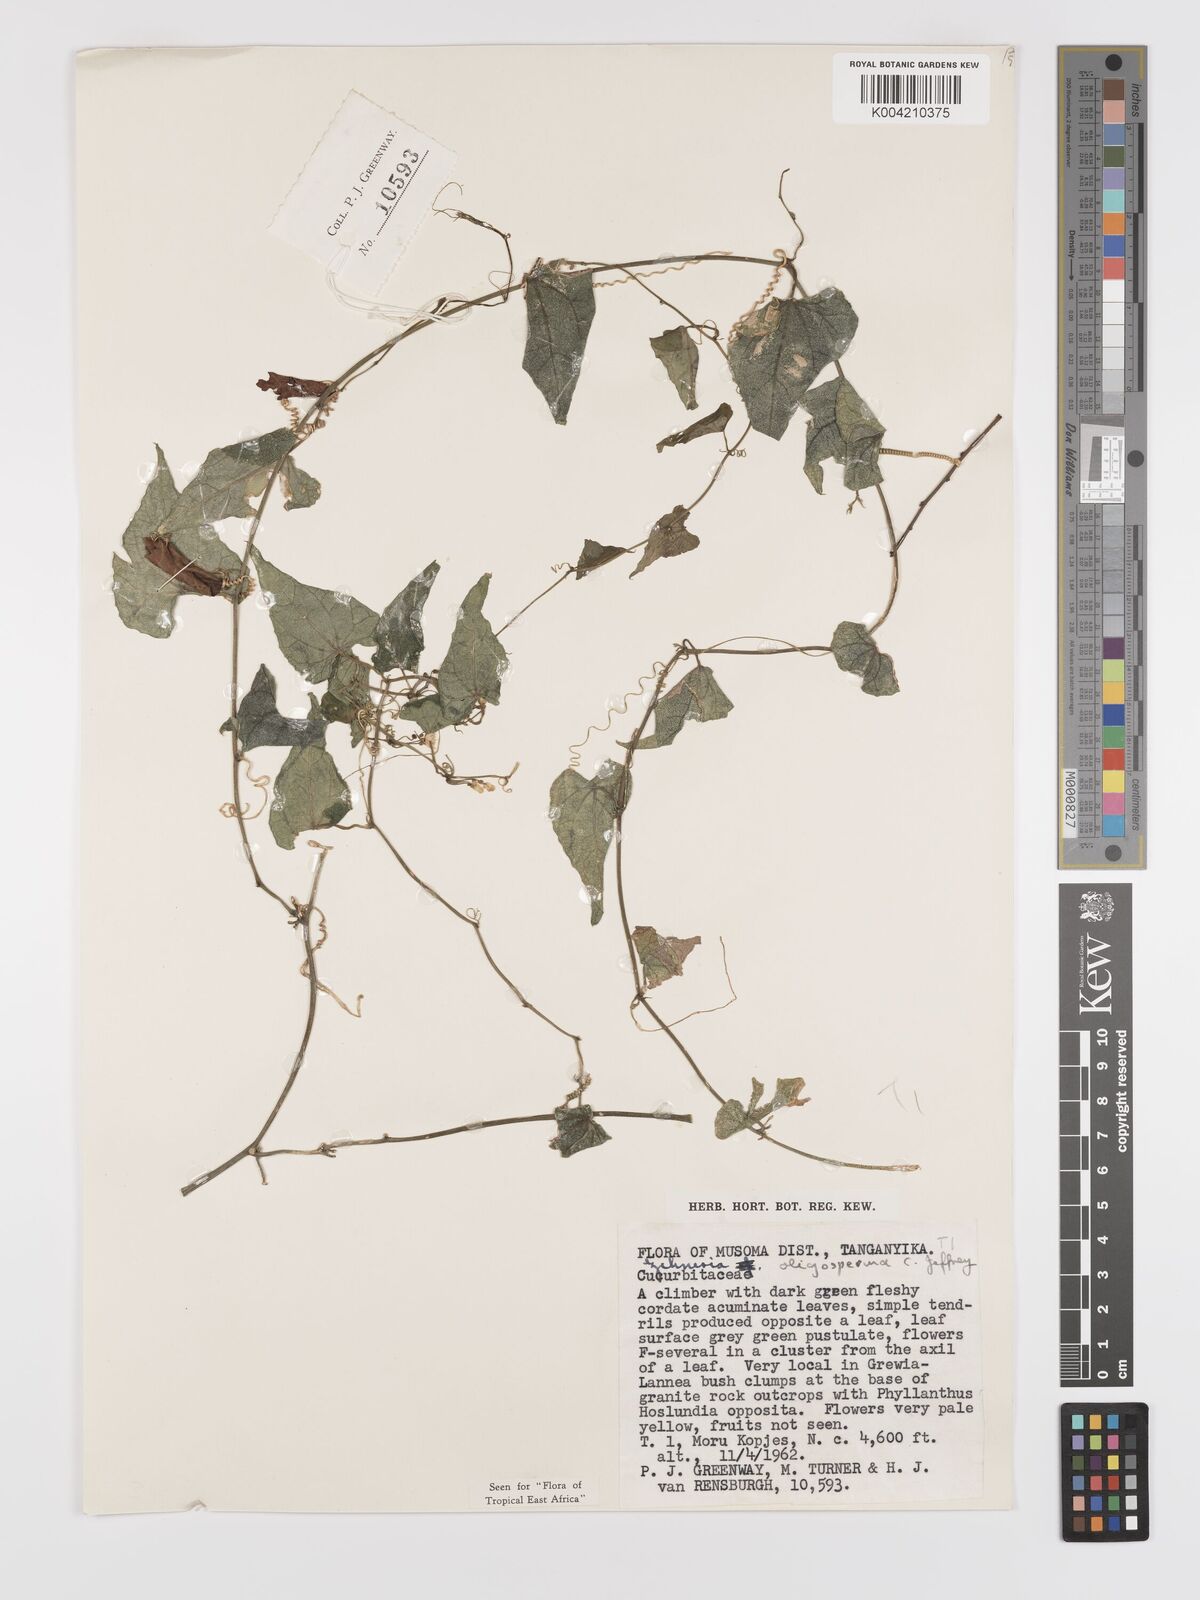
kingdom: Plantae
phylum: Tracheophyta
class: Magnoliopsida
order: Cucurbitales
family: Cucurbitaceae
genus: Zehneria
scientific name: Zehneria oligosperma
